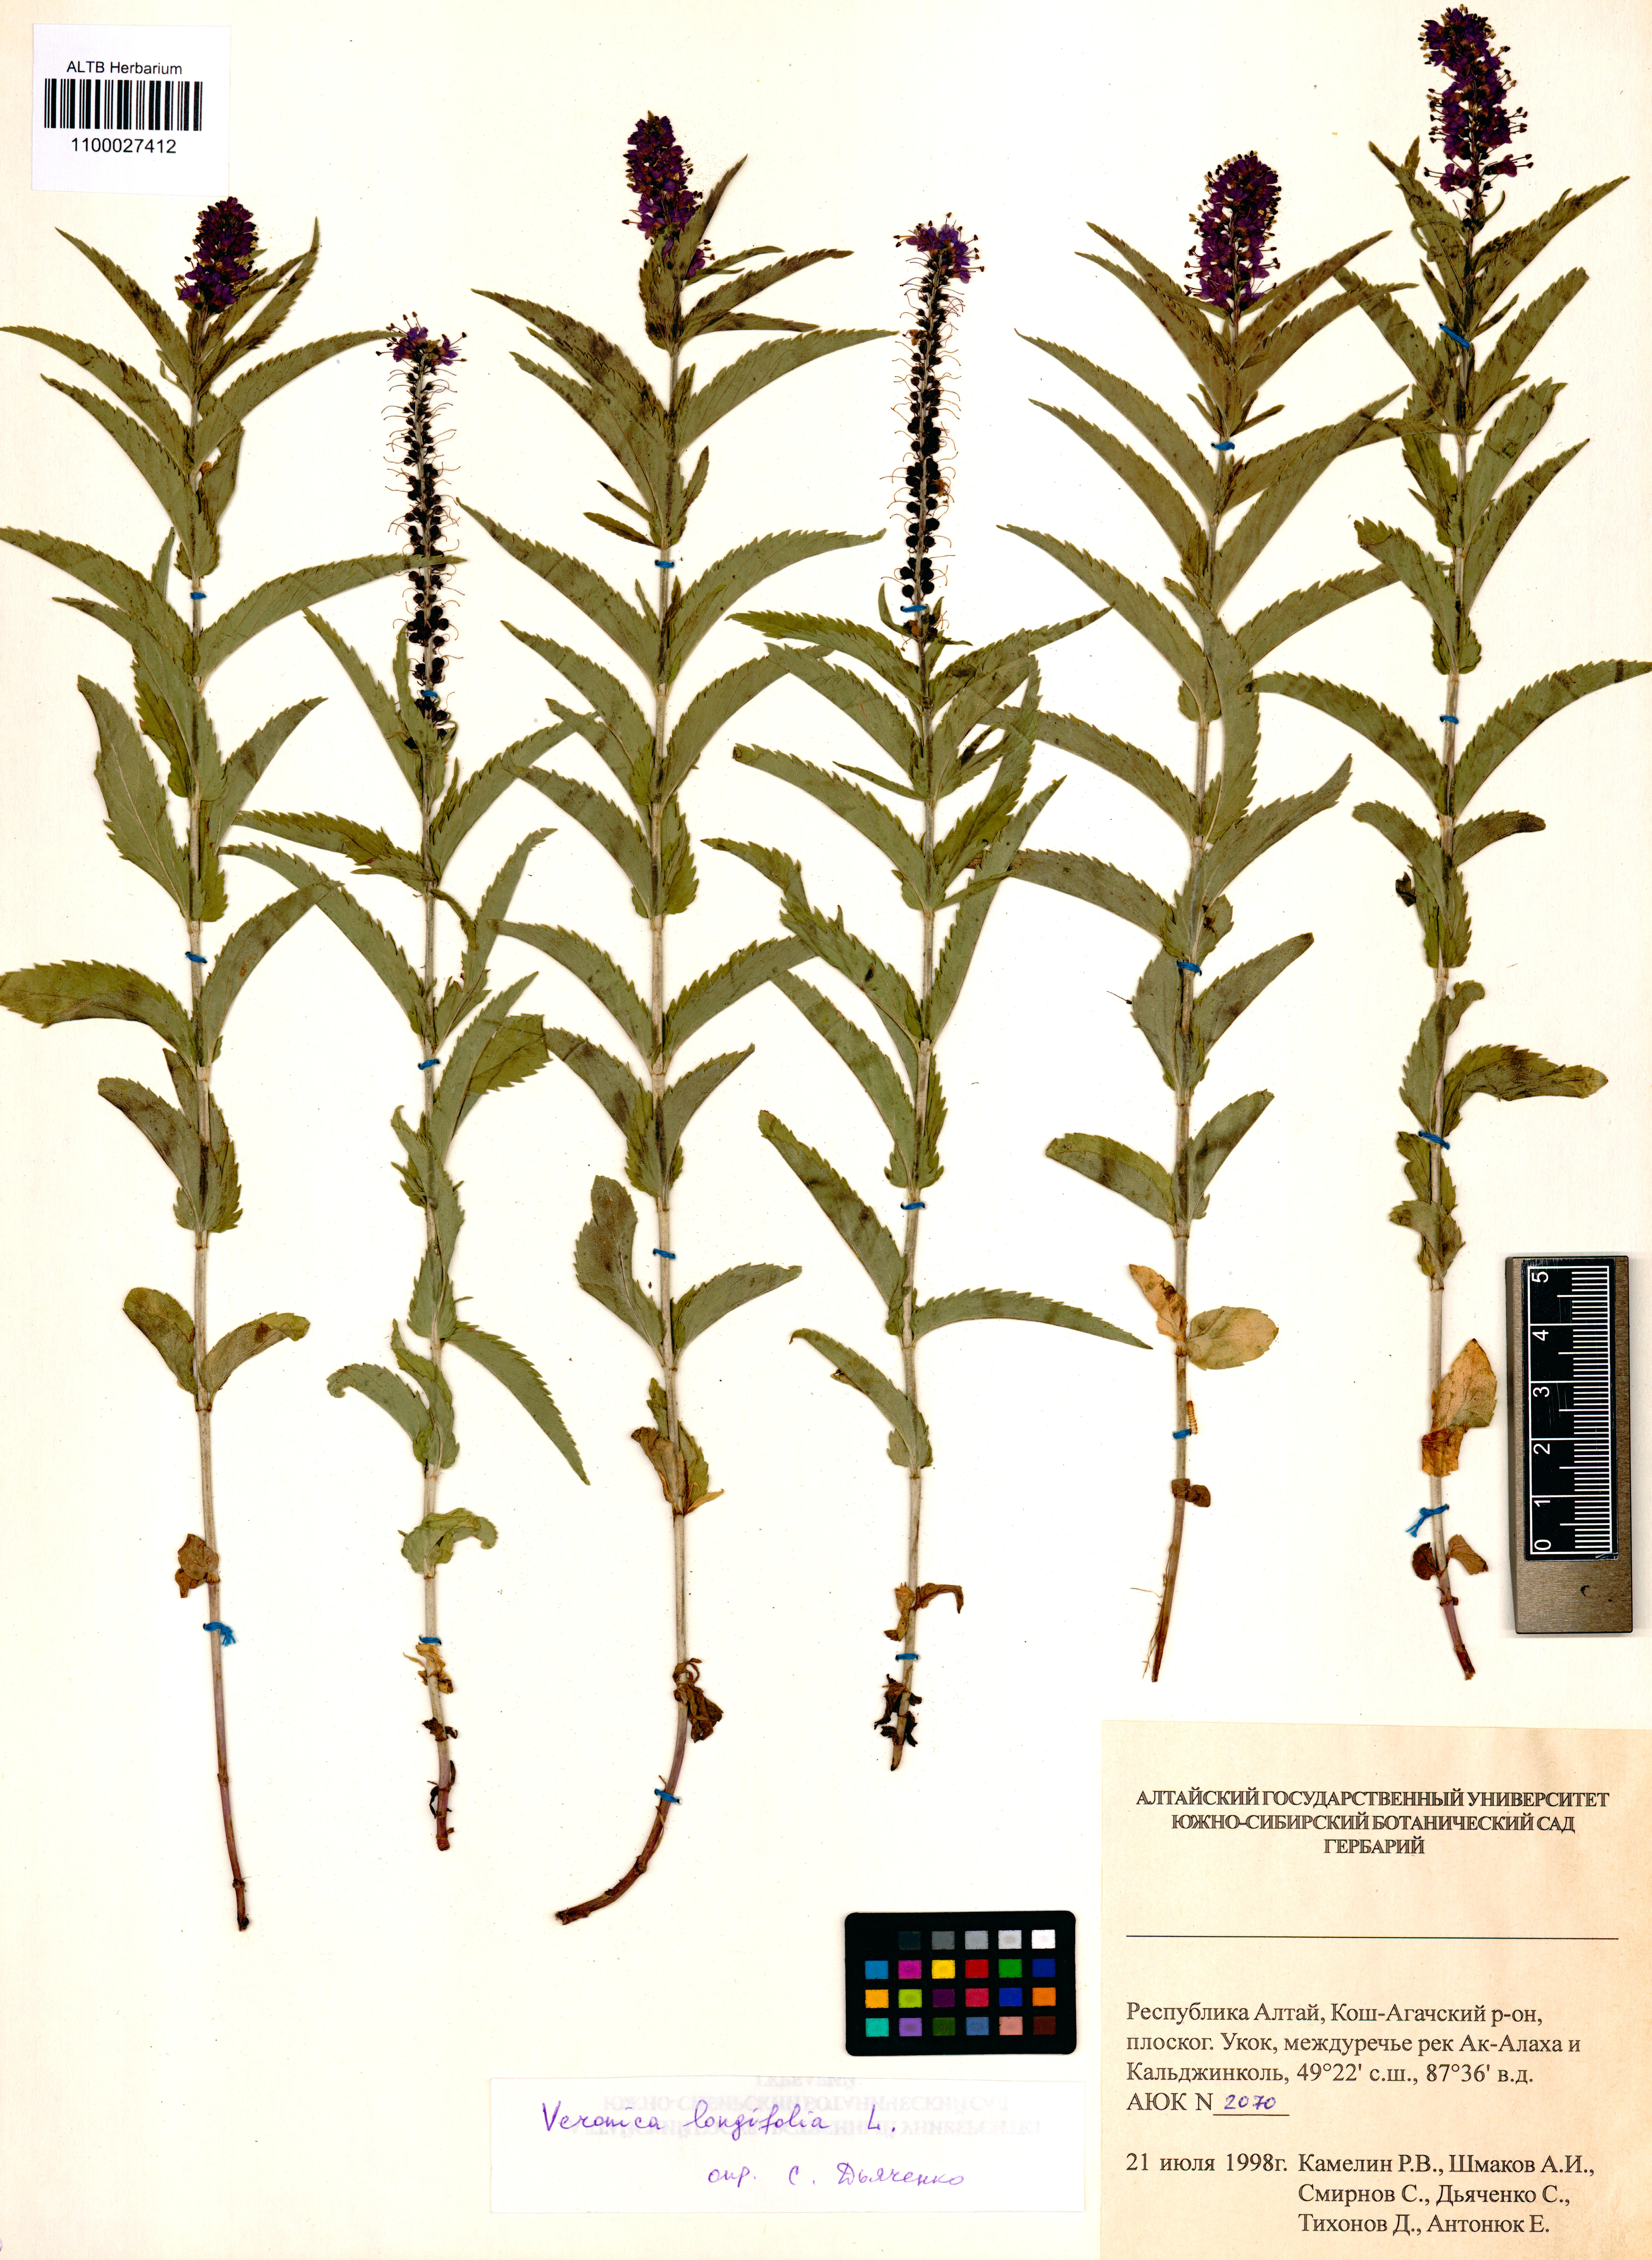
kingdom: Plantae
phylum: Tracheophyta
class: Magnoliopsida
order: Lamiales
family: Plantaginaceae
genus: Veronica
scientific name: Veronica longifolia
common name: Garden speedwell
